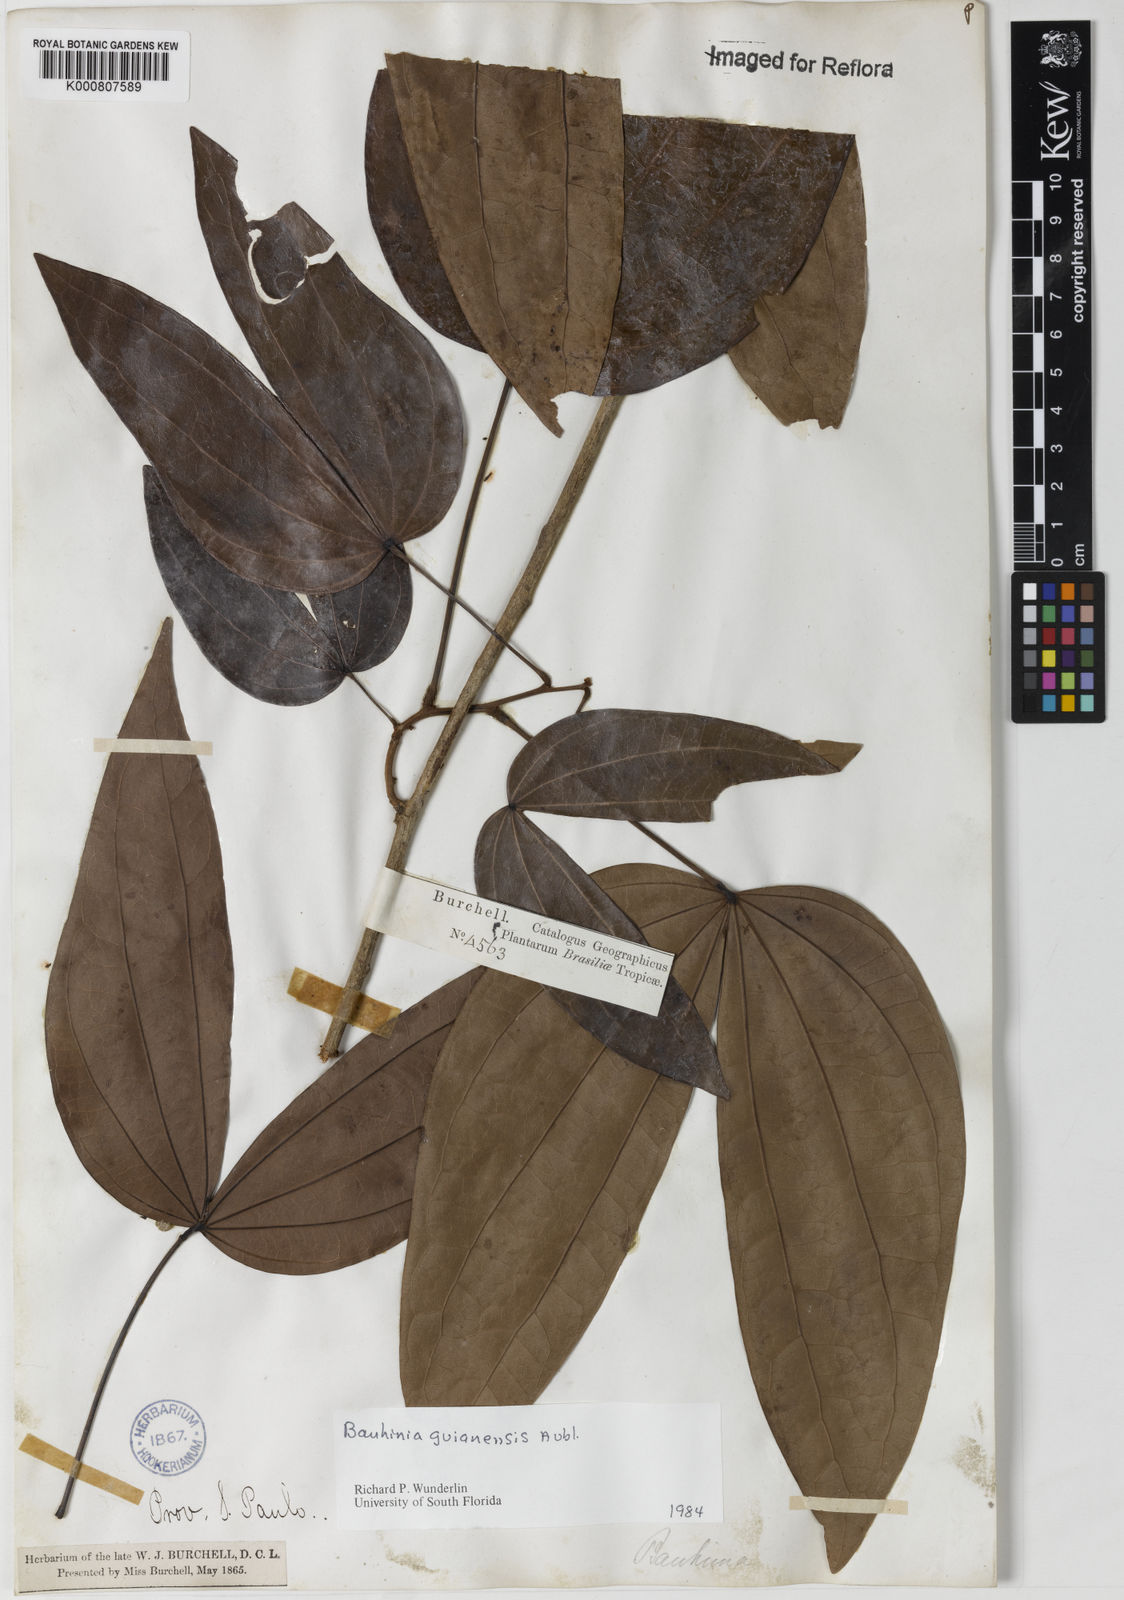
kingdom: Plantae
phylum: Tracheophyta
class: Magnoliopsida
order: Fabales
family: Fabaceae
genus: Schnella
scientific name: Schnella guianensis
